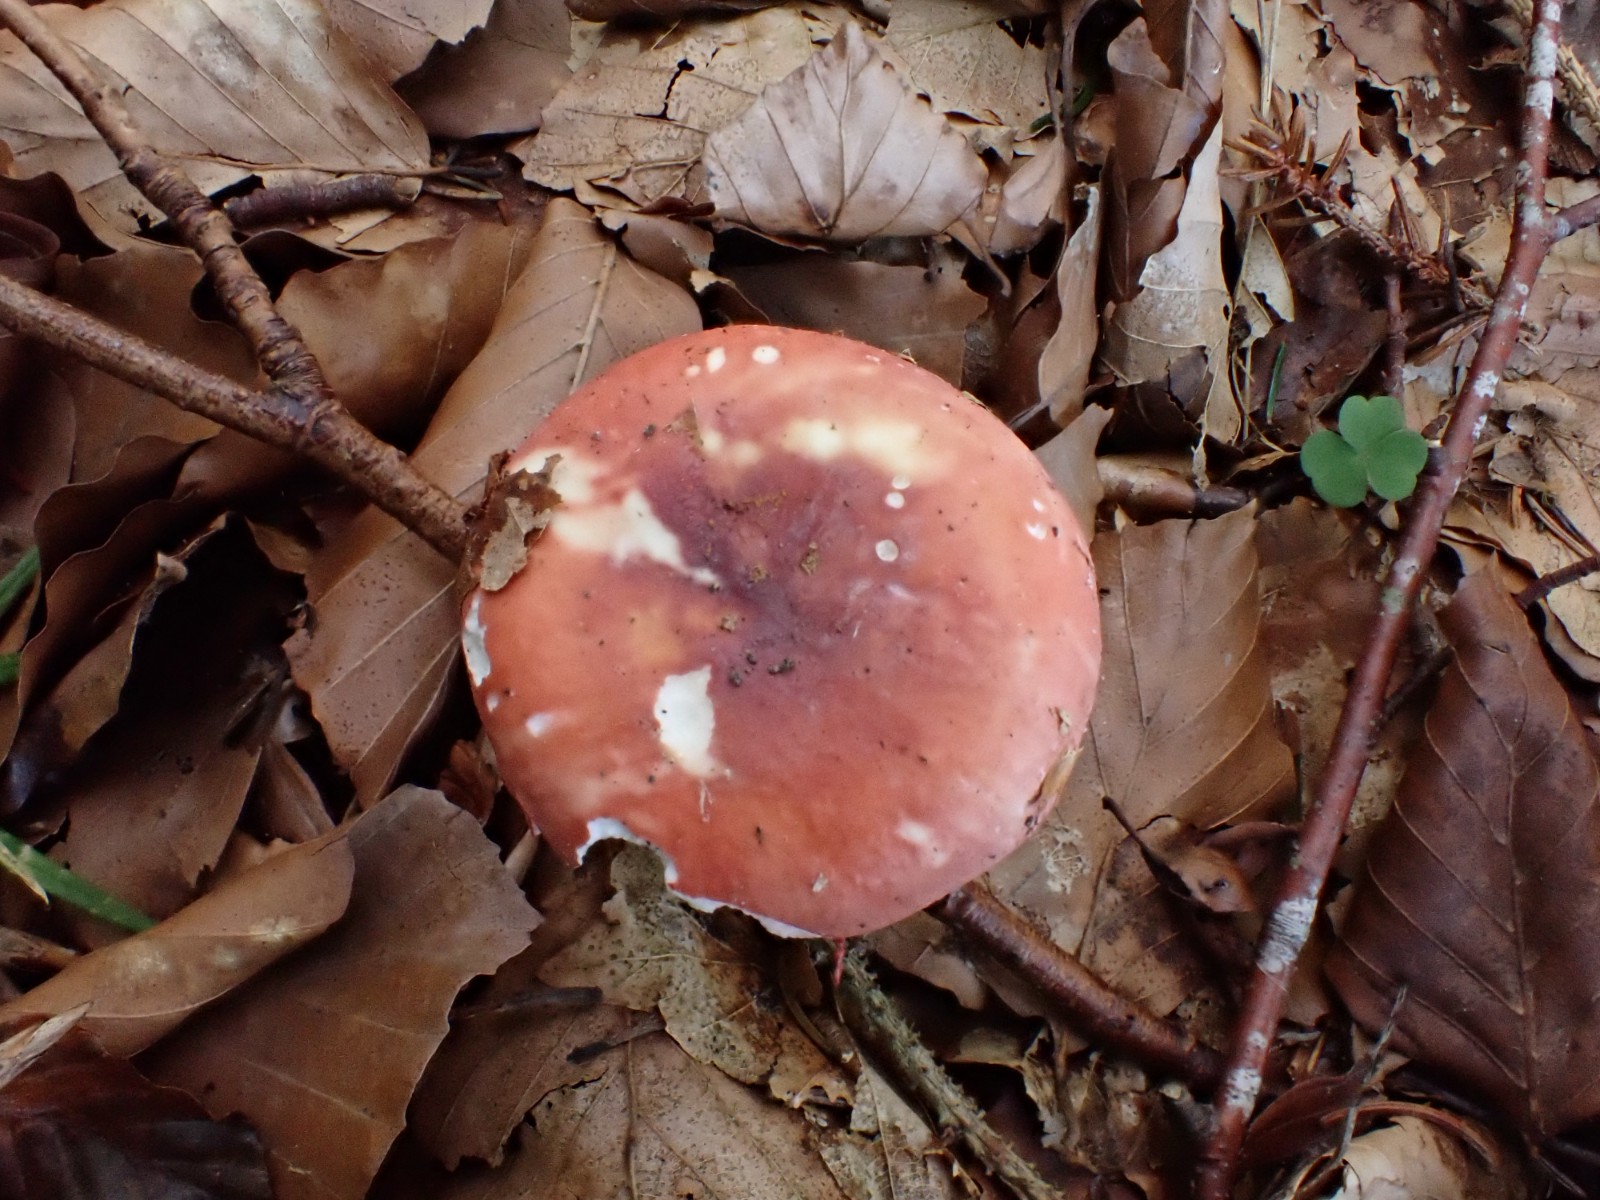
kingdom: Fungi
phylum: Basidiomycota
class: Agaricomycetes
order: Russulales
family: Russulaceae
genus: Russula
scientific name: Russula aurora
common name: rosa skørhat
